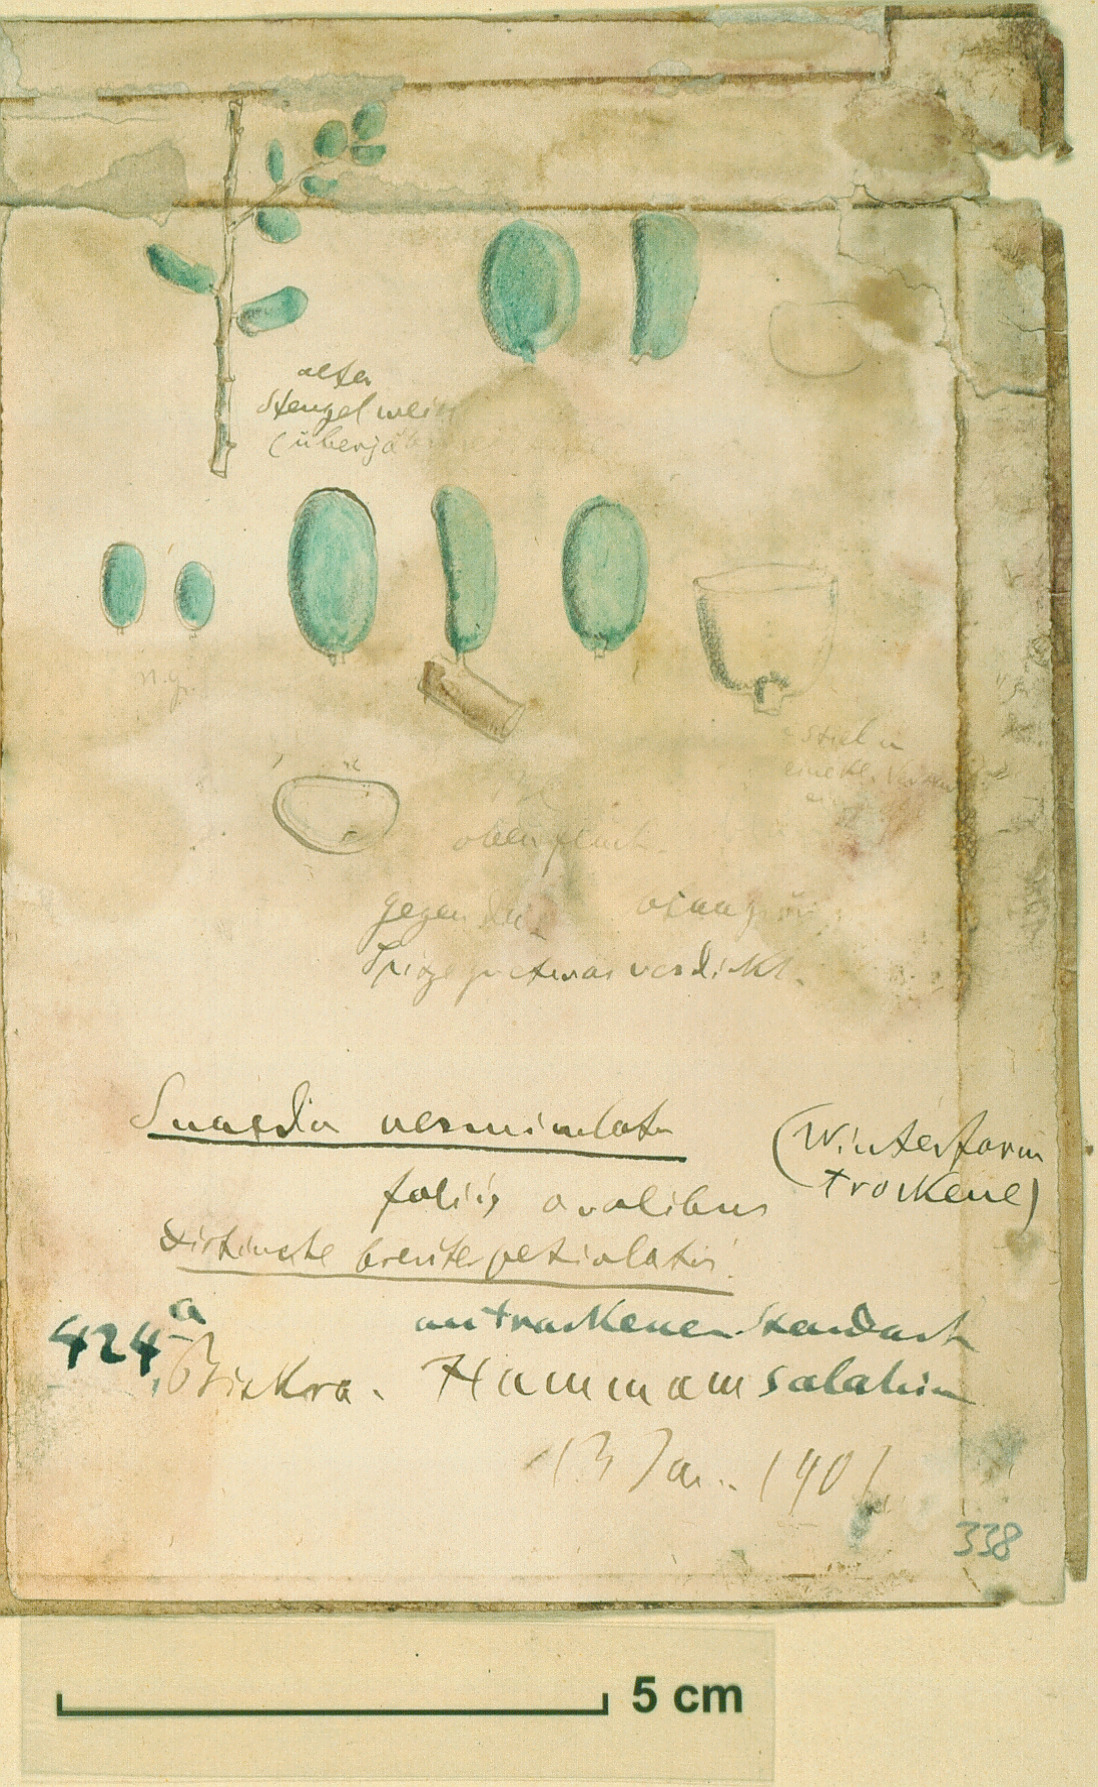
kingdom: Plantae
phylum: Tracheophyta
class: Magnoliopsida
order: Caryophyllales
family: Amaranthaceae
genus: Suaeda
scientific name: Suaeda vermiculata
